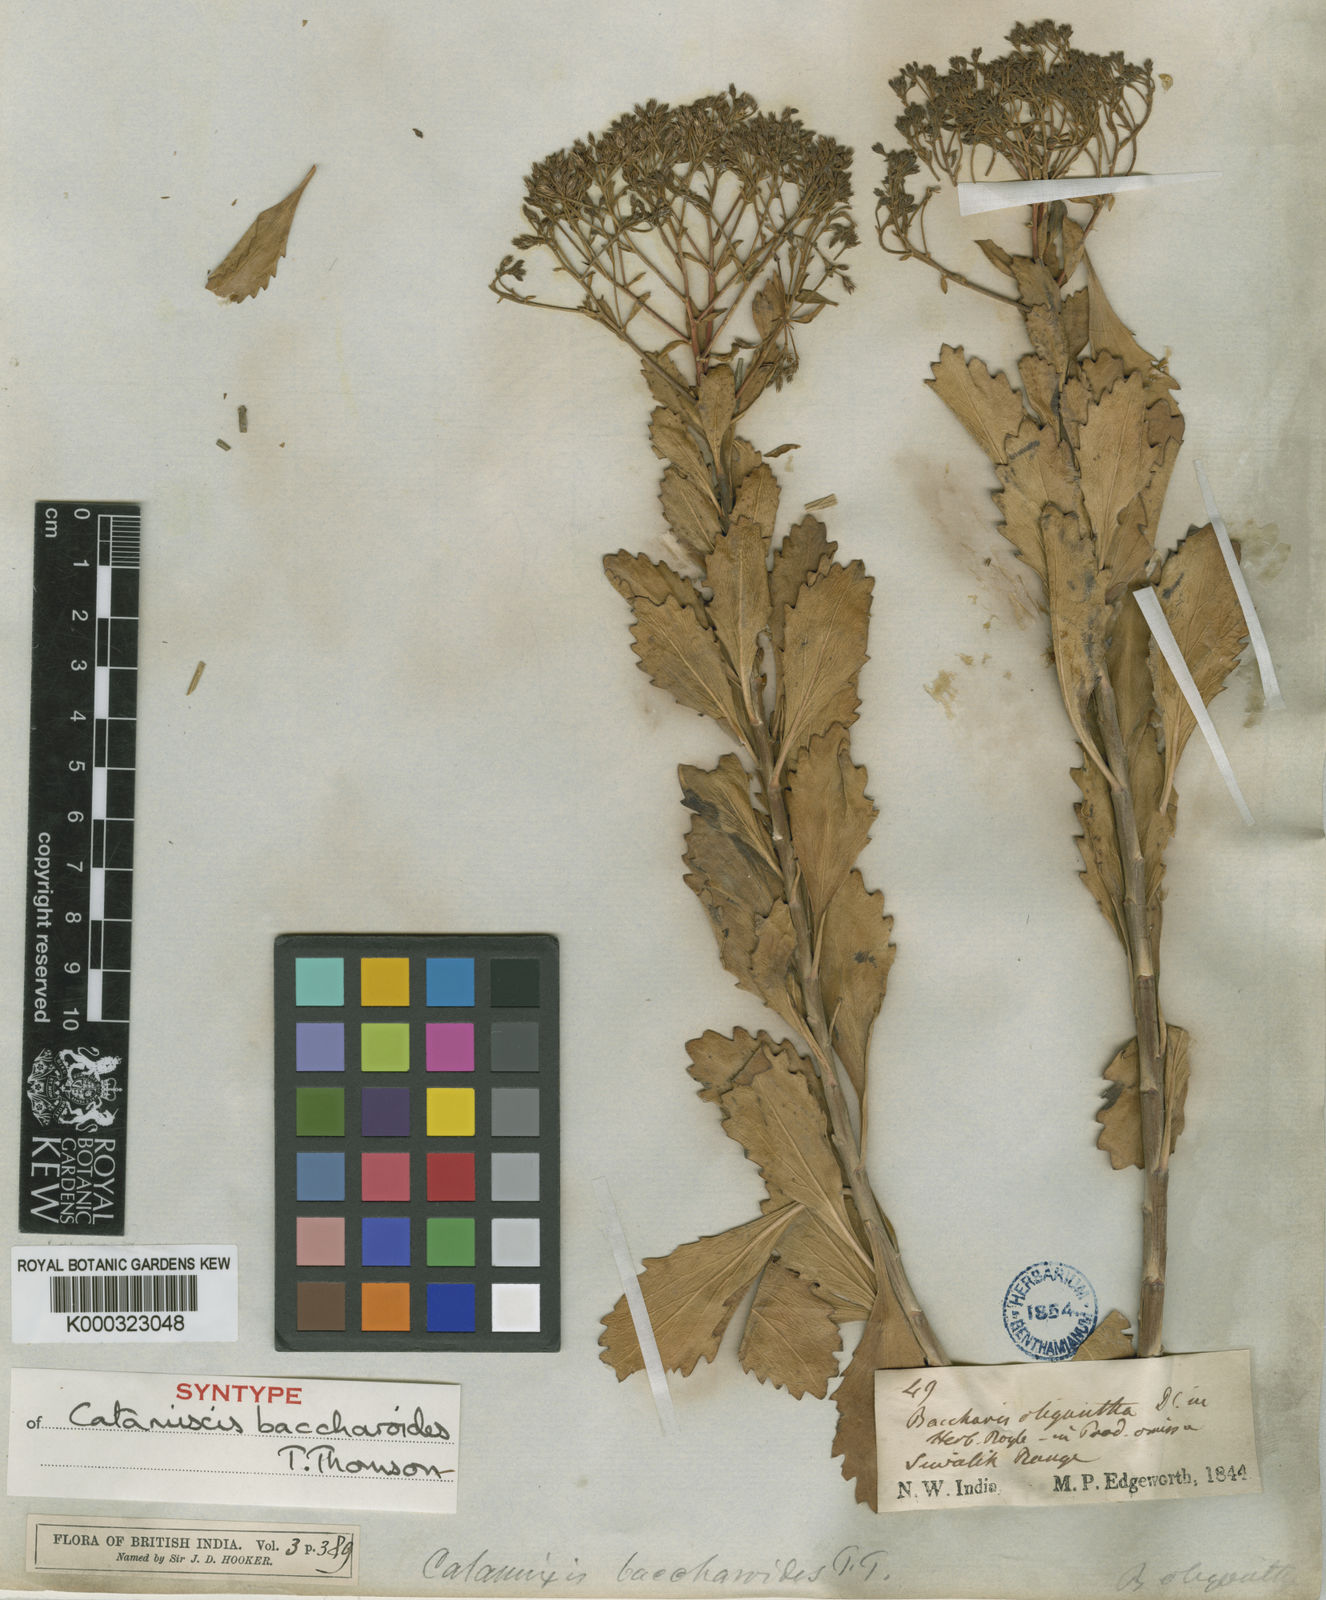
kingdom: Plantae
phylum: Tracheophyta
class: Magnoliopsida
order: Asterales
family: Asteraceae
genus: Catamixis
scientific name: Catamixis baccharoides
